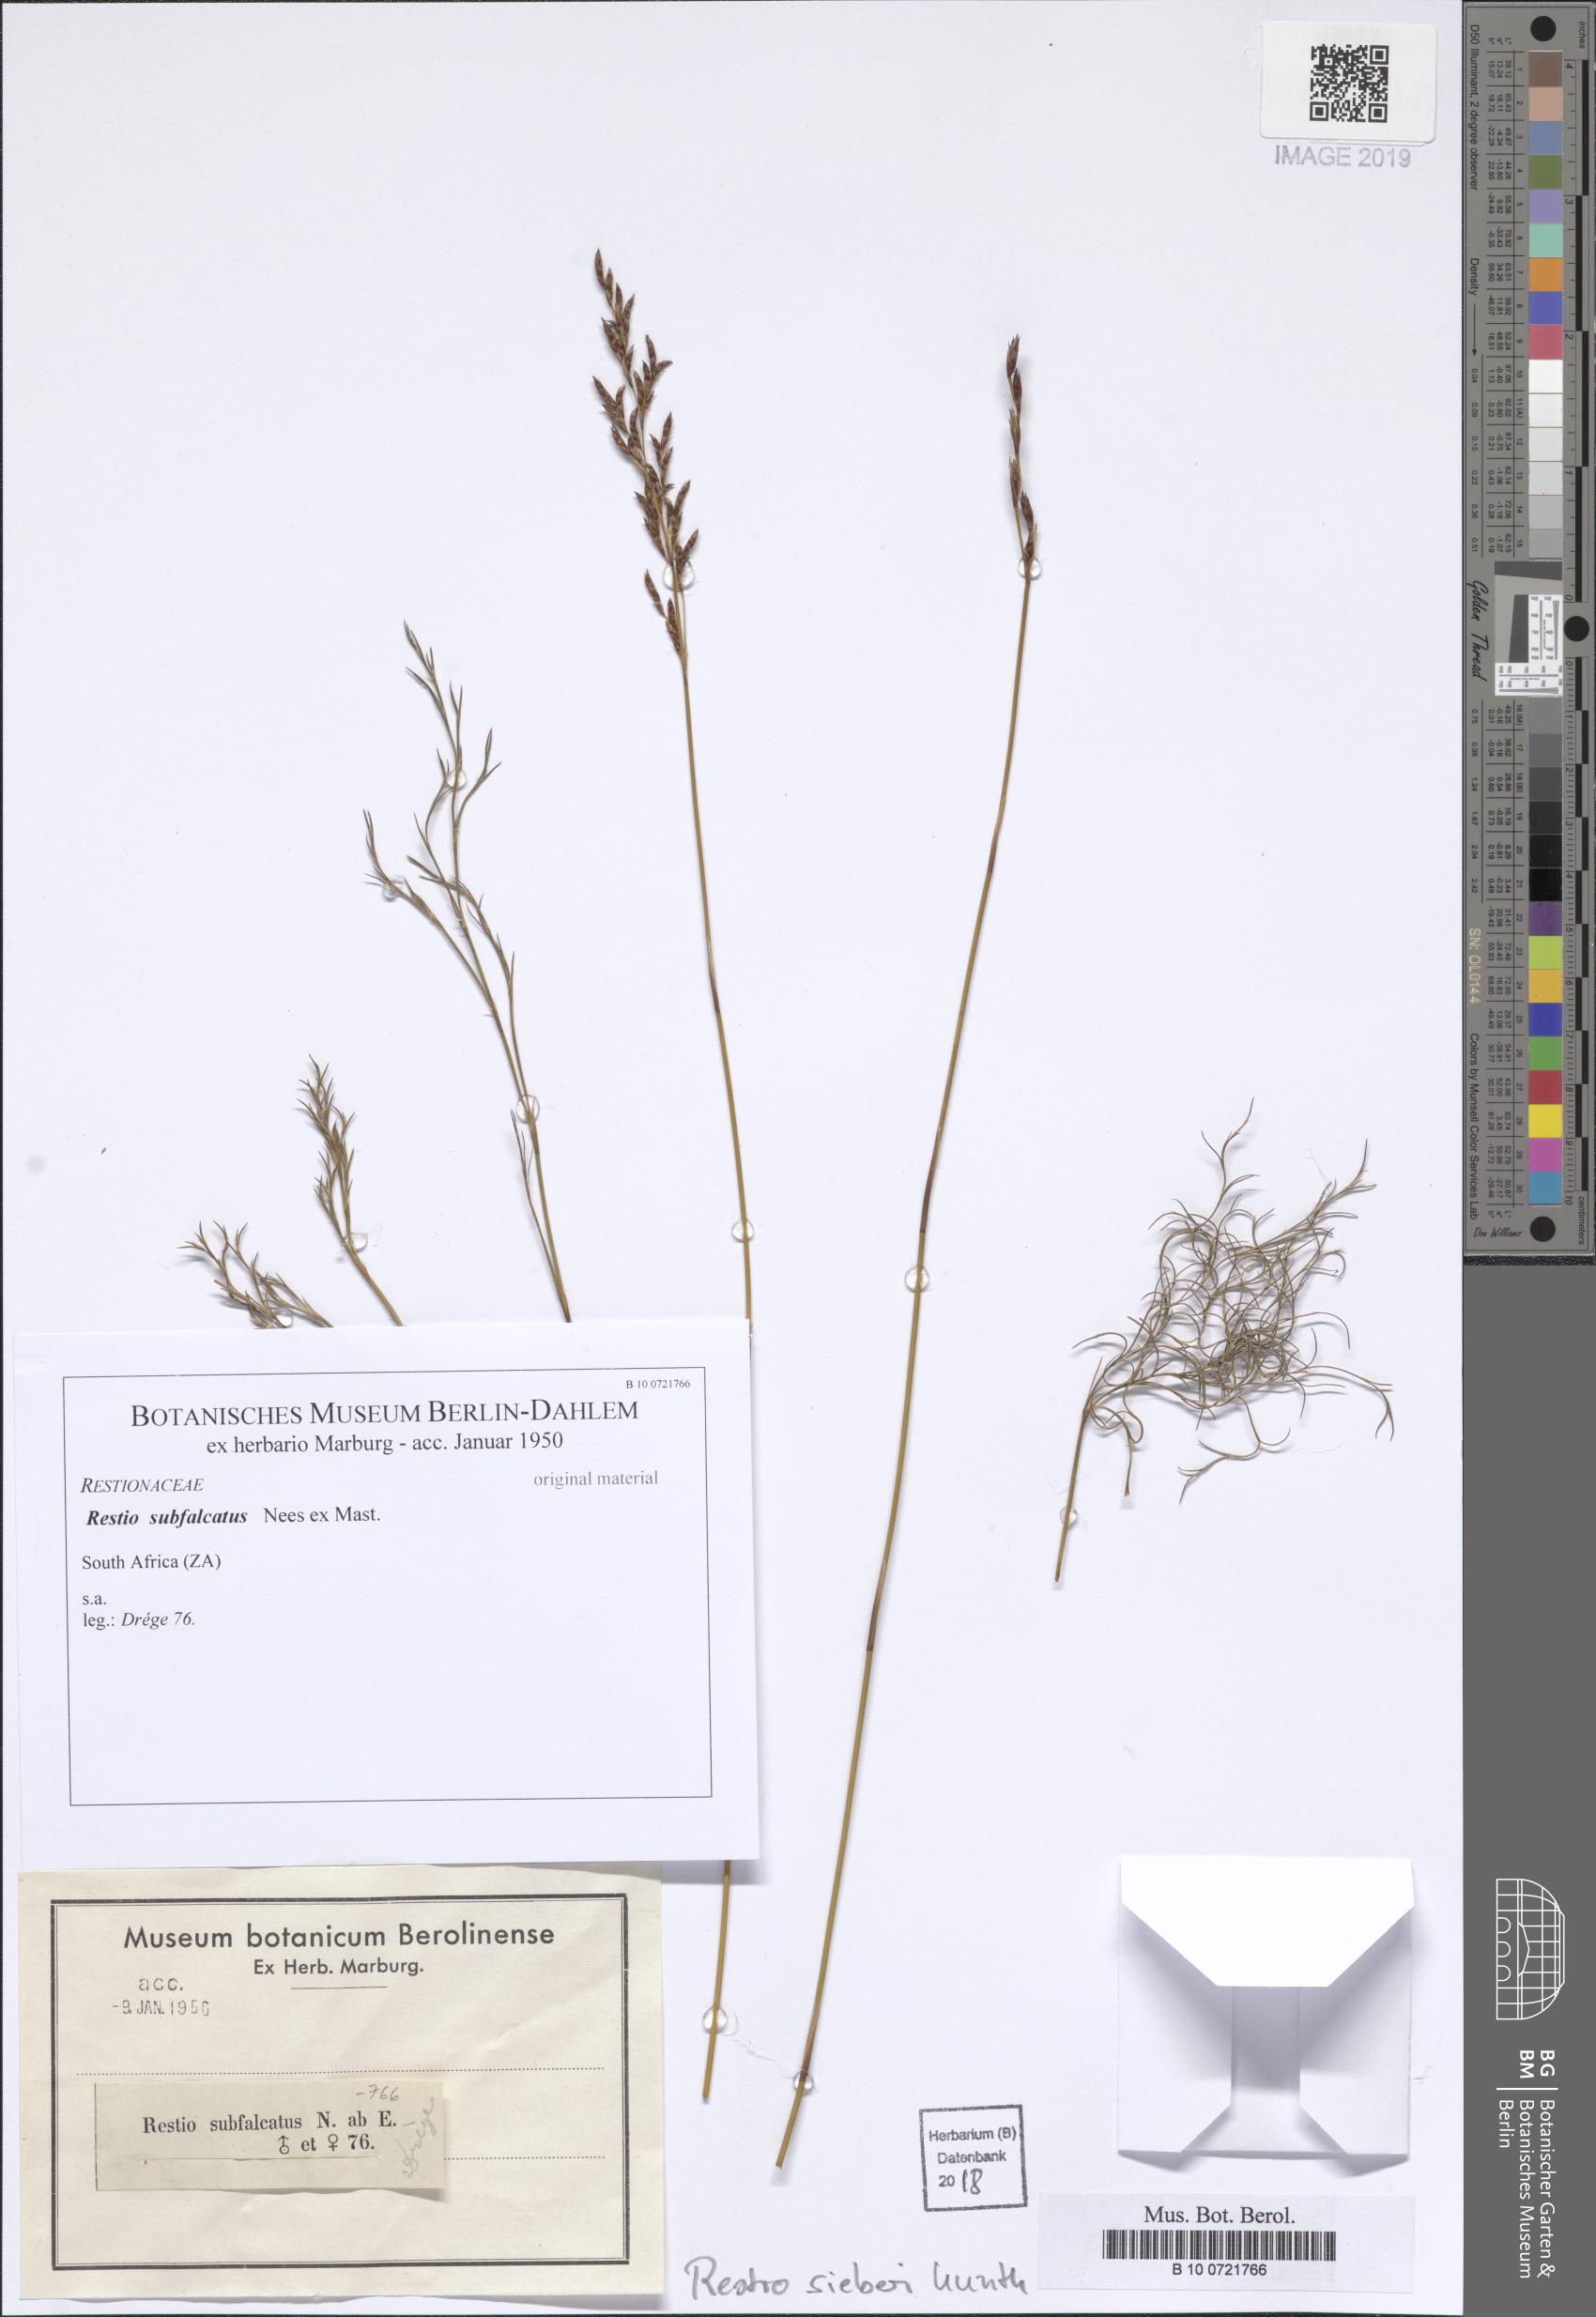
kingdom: Plantae
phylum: Tracheophyta
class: Liliopsida
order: Poales
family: Restionaceae
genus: Restio
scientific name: Restio sieberi
